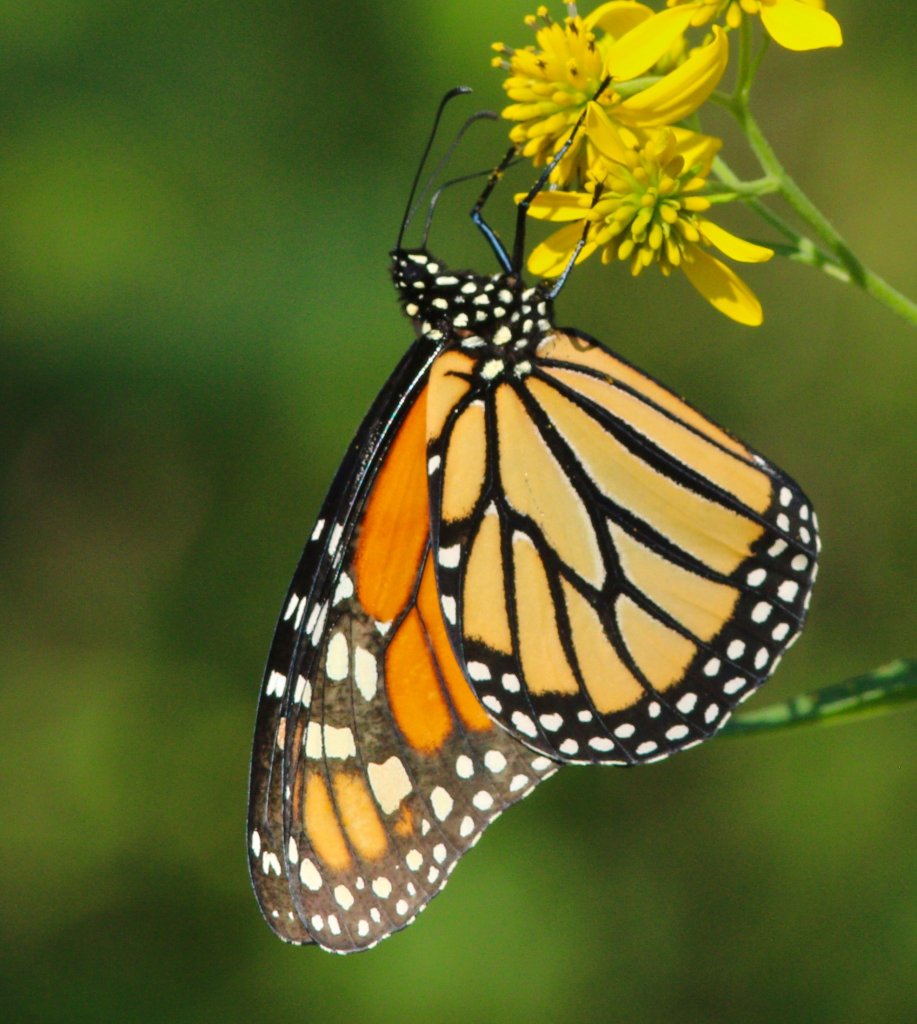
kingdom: Animalia
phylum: Arthropoda
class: Insecta
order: Lepidoptera
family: Nymphalidae
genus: Danaus
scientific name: Danaus plexippus
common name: Monarch
